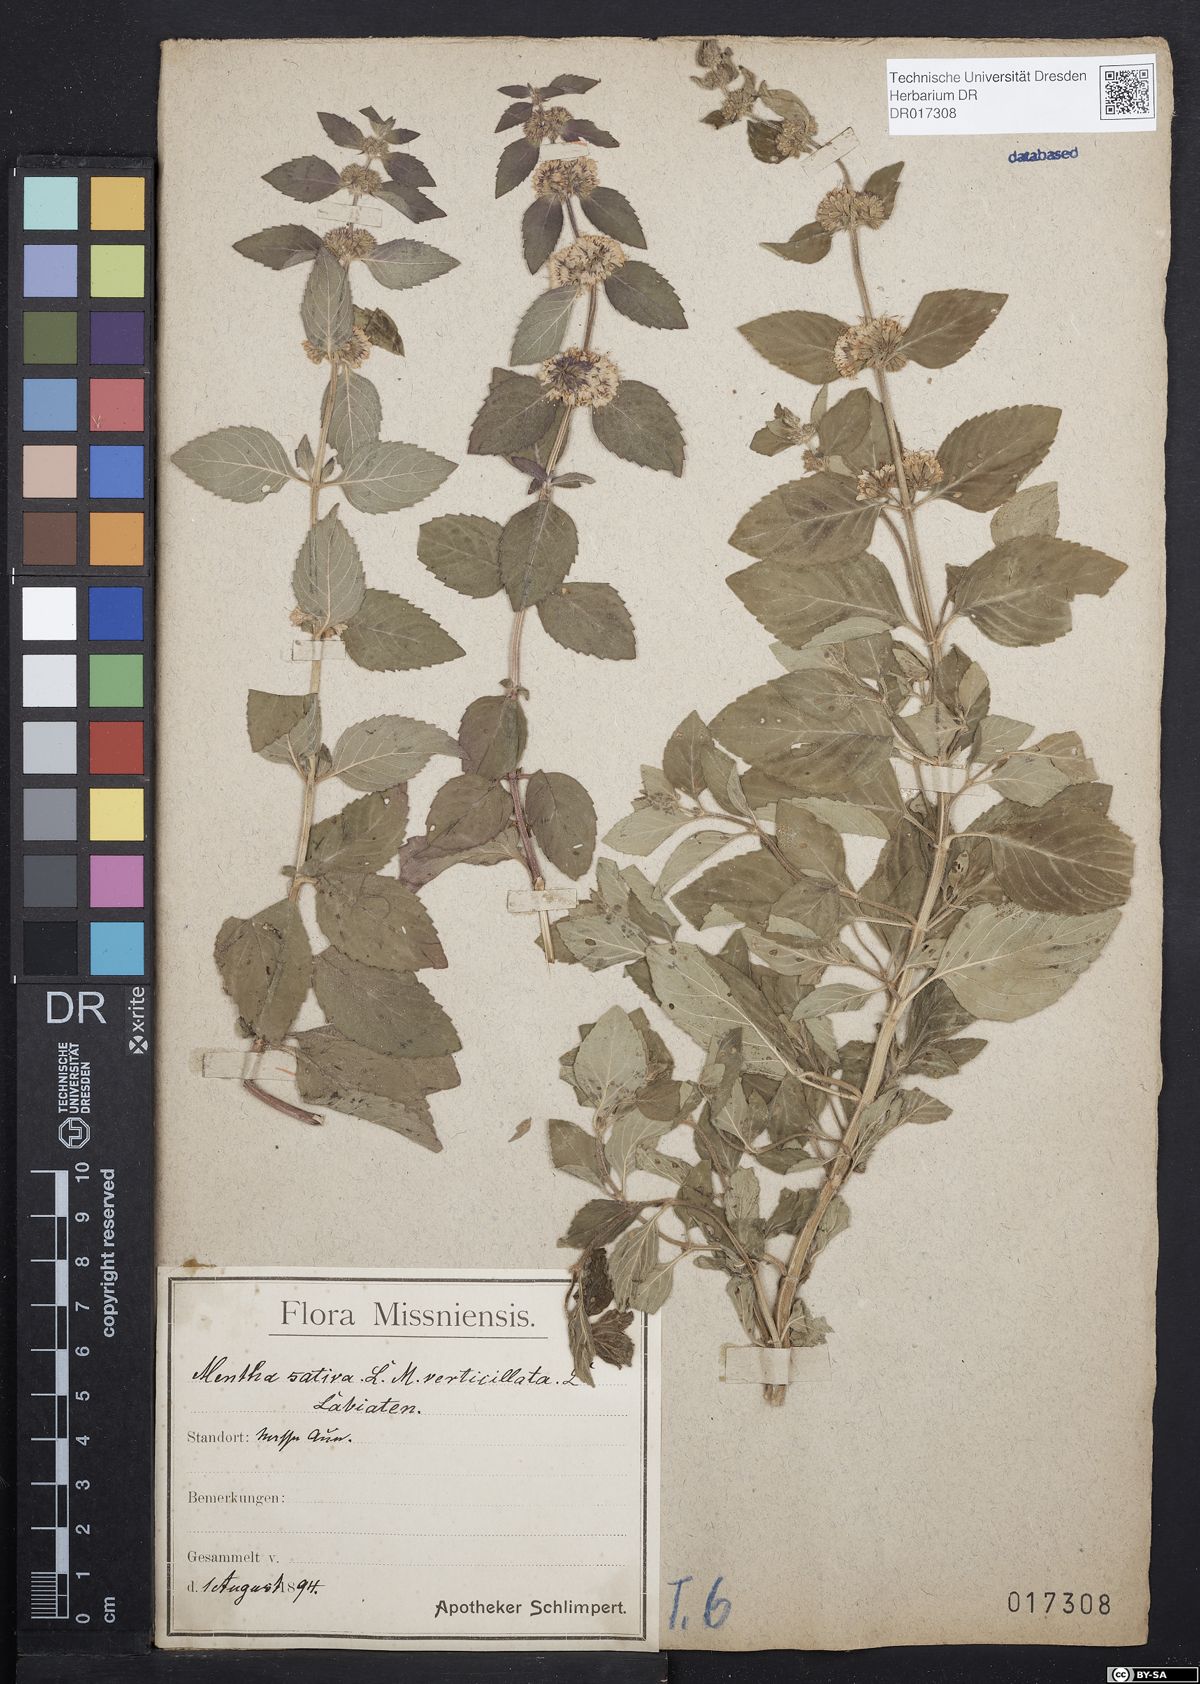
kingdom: Plantae
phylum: Tracheophyta
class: Magnoliopsida
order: Lamiales
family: Lamiaceae
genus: Mentha
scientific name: Mentha verticillata
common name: Mint
